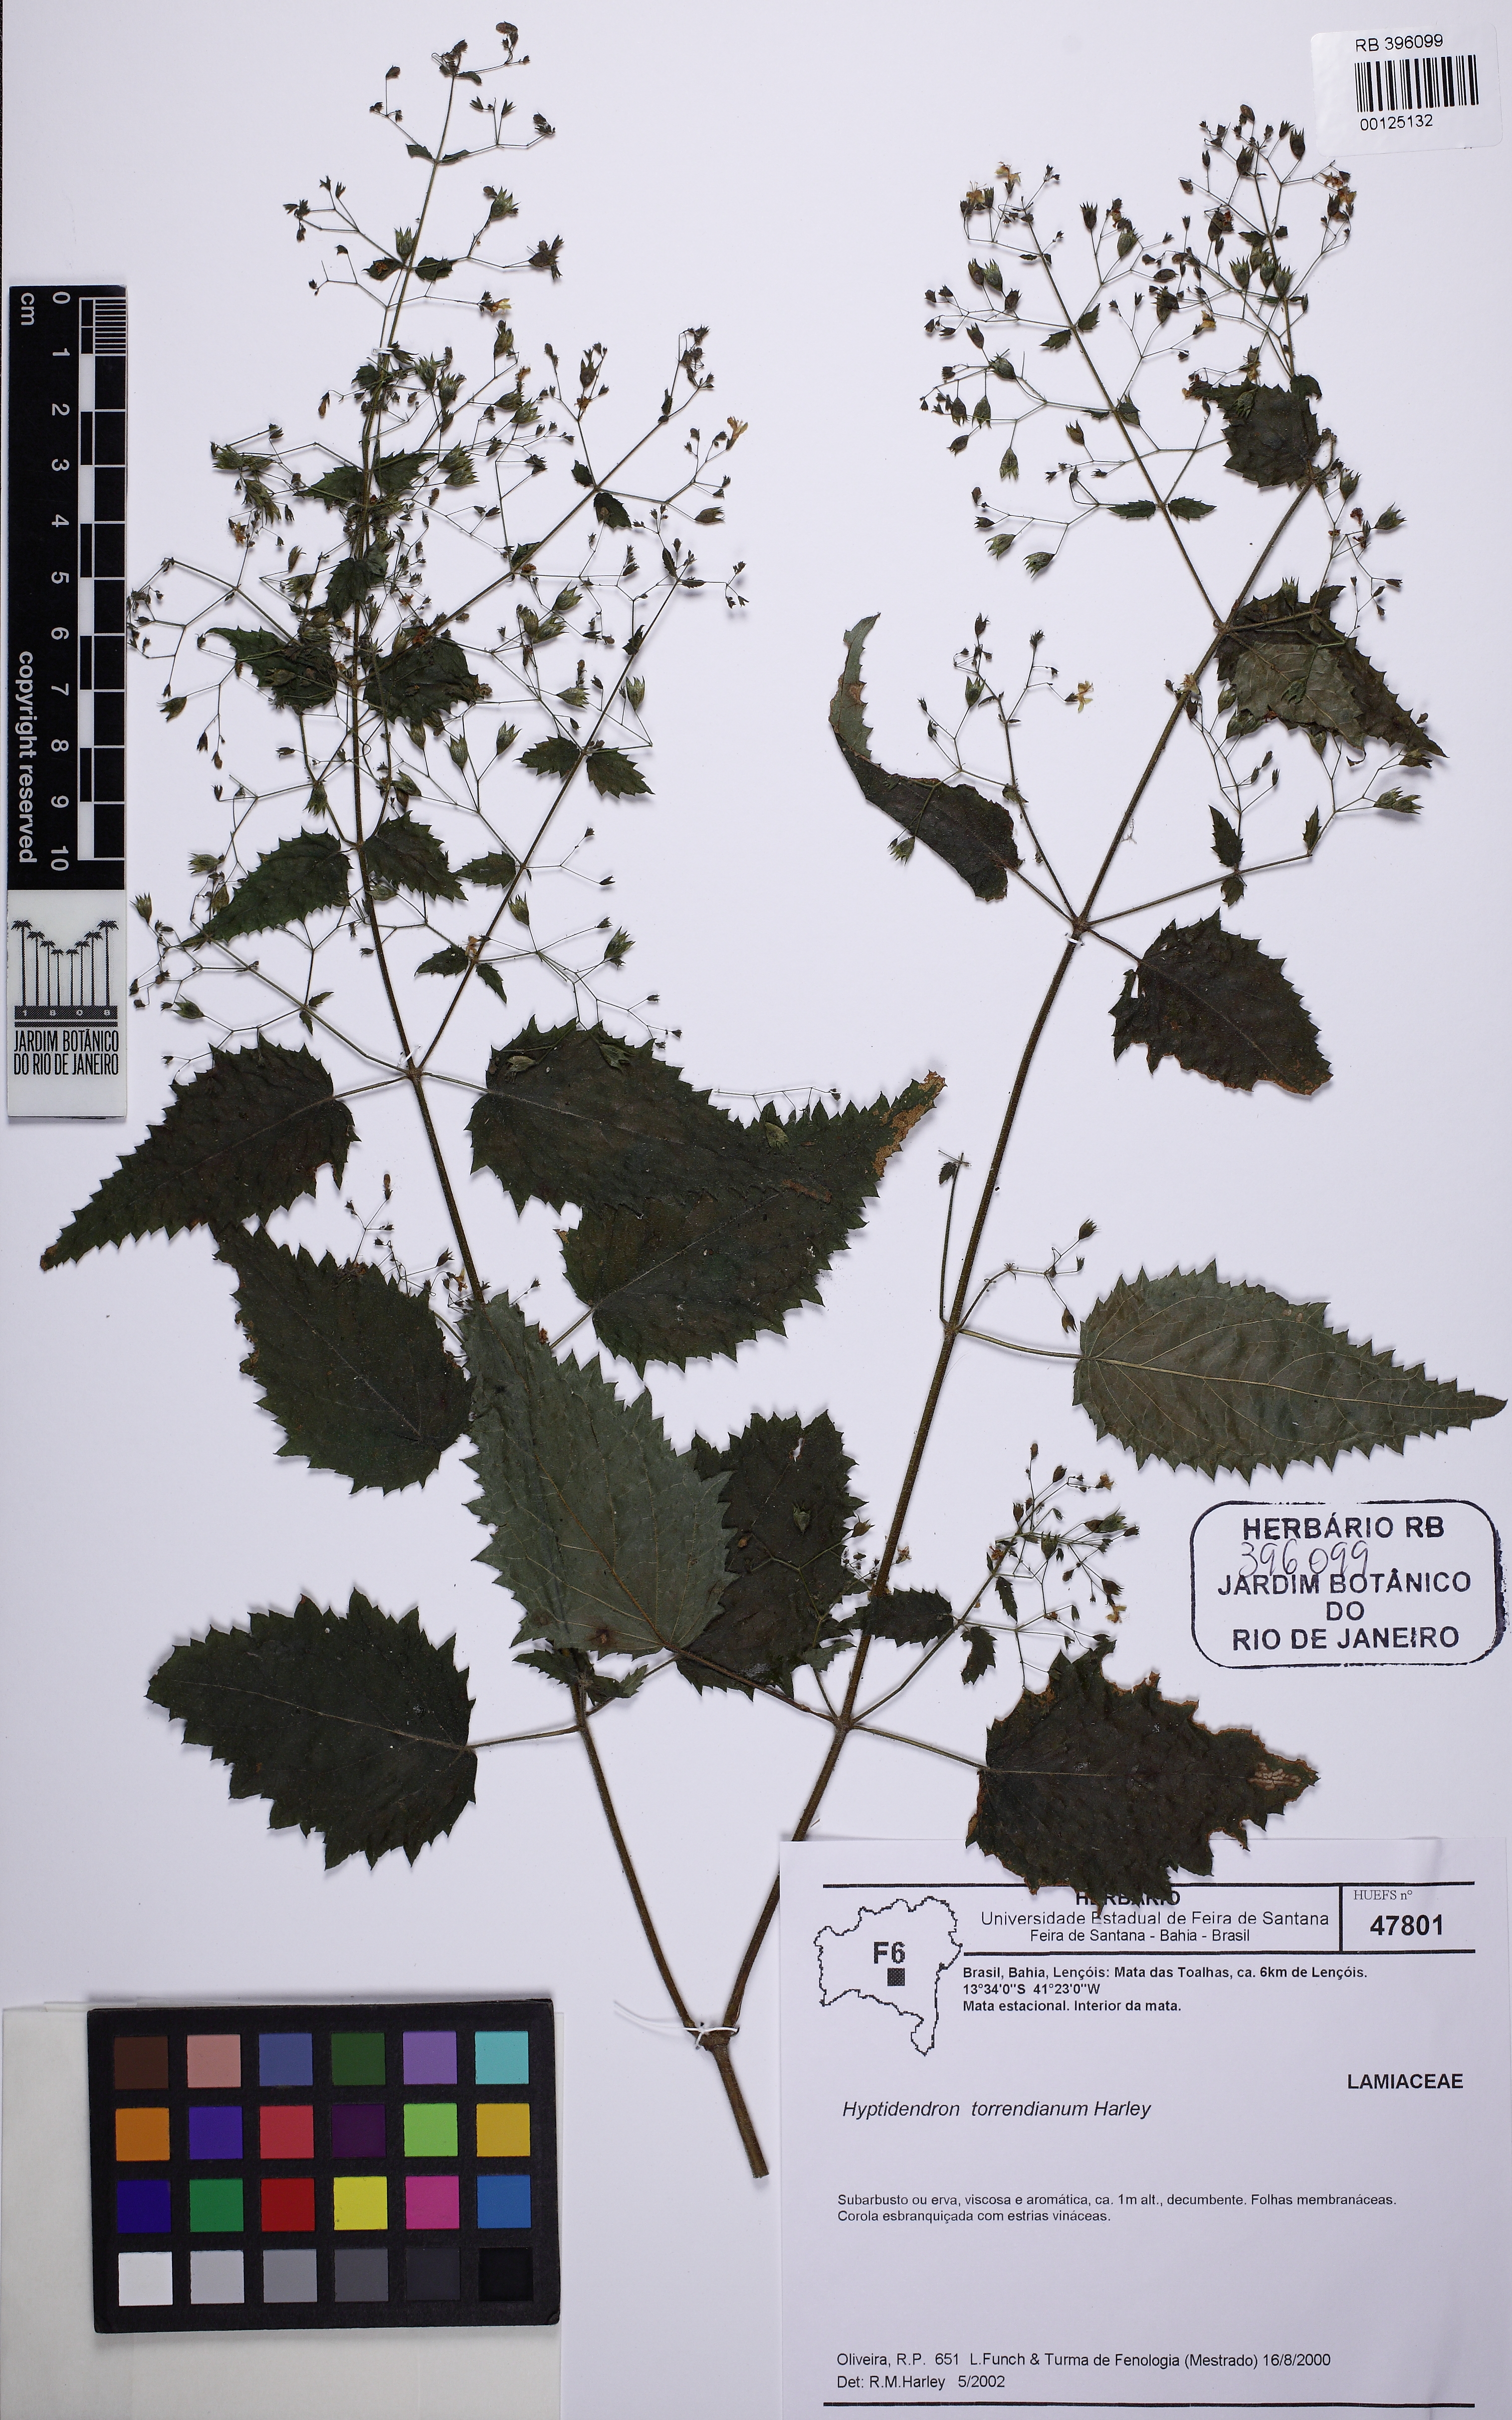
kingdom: Plantae
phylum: Tracheophyta
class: Magnoliopsida
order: Lamiales
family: Lamiaceae
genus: Hyptidendron
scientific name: Hyptidendron amethystoides
